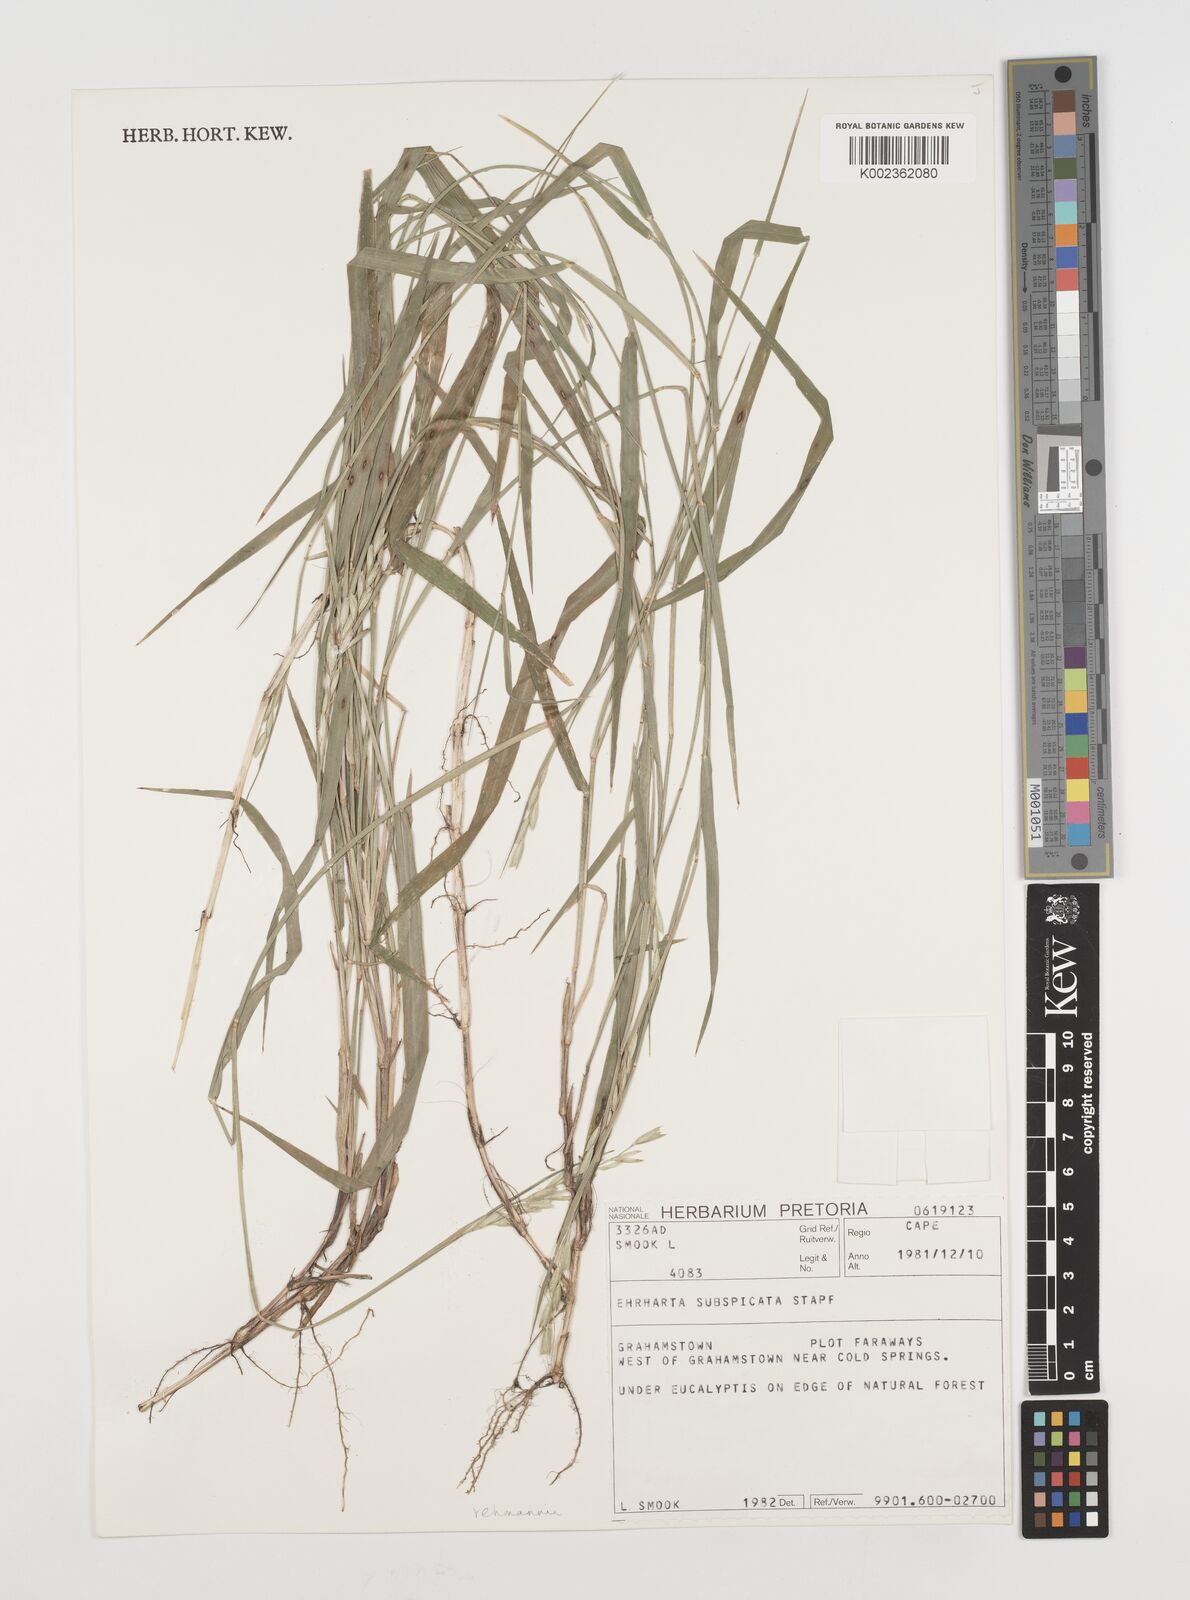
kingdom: Plantae
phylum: Tracheophyta
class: Liliopsida
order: Poales
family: Poaceae
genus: Ehrharta
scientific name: Ehrharta rehmannii
